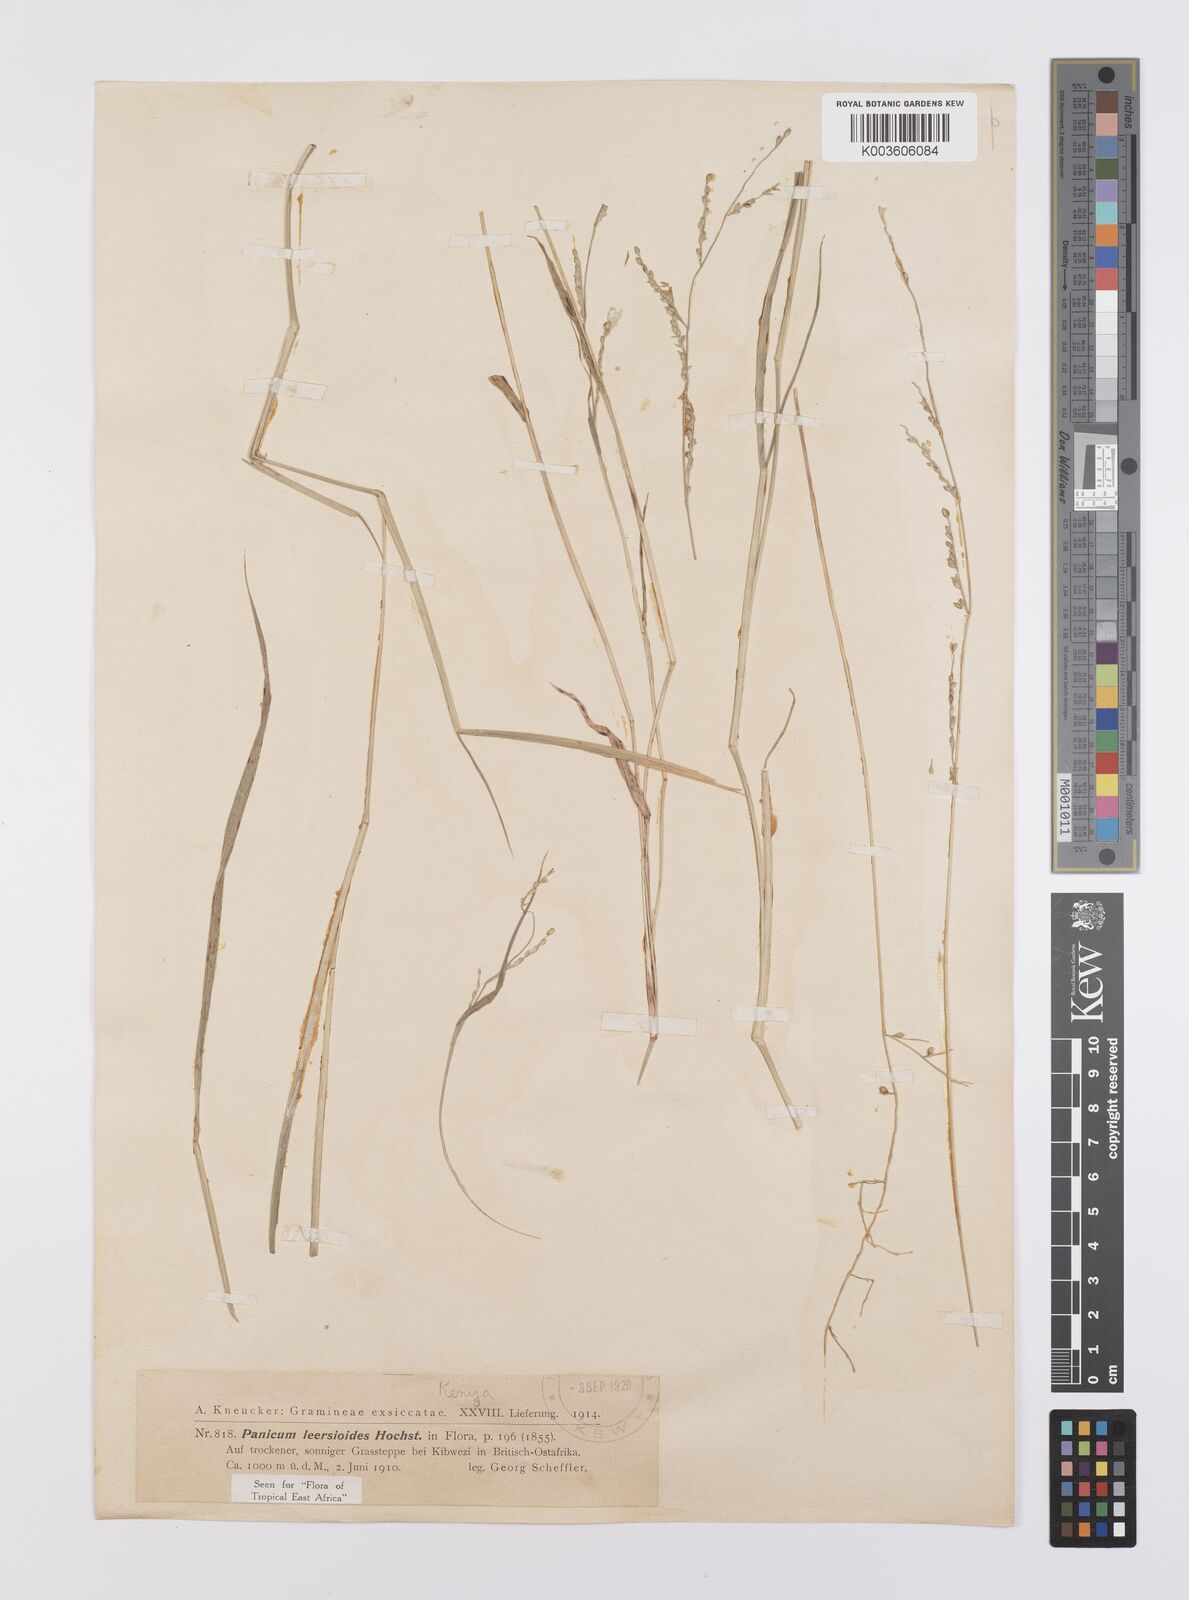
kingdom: Plantae
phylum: Tracheophyta
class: Liliopsida
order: Poales
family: Poaceae
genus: Urochloa
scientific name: Urochloa leersioides
